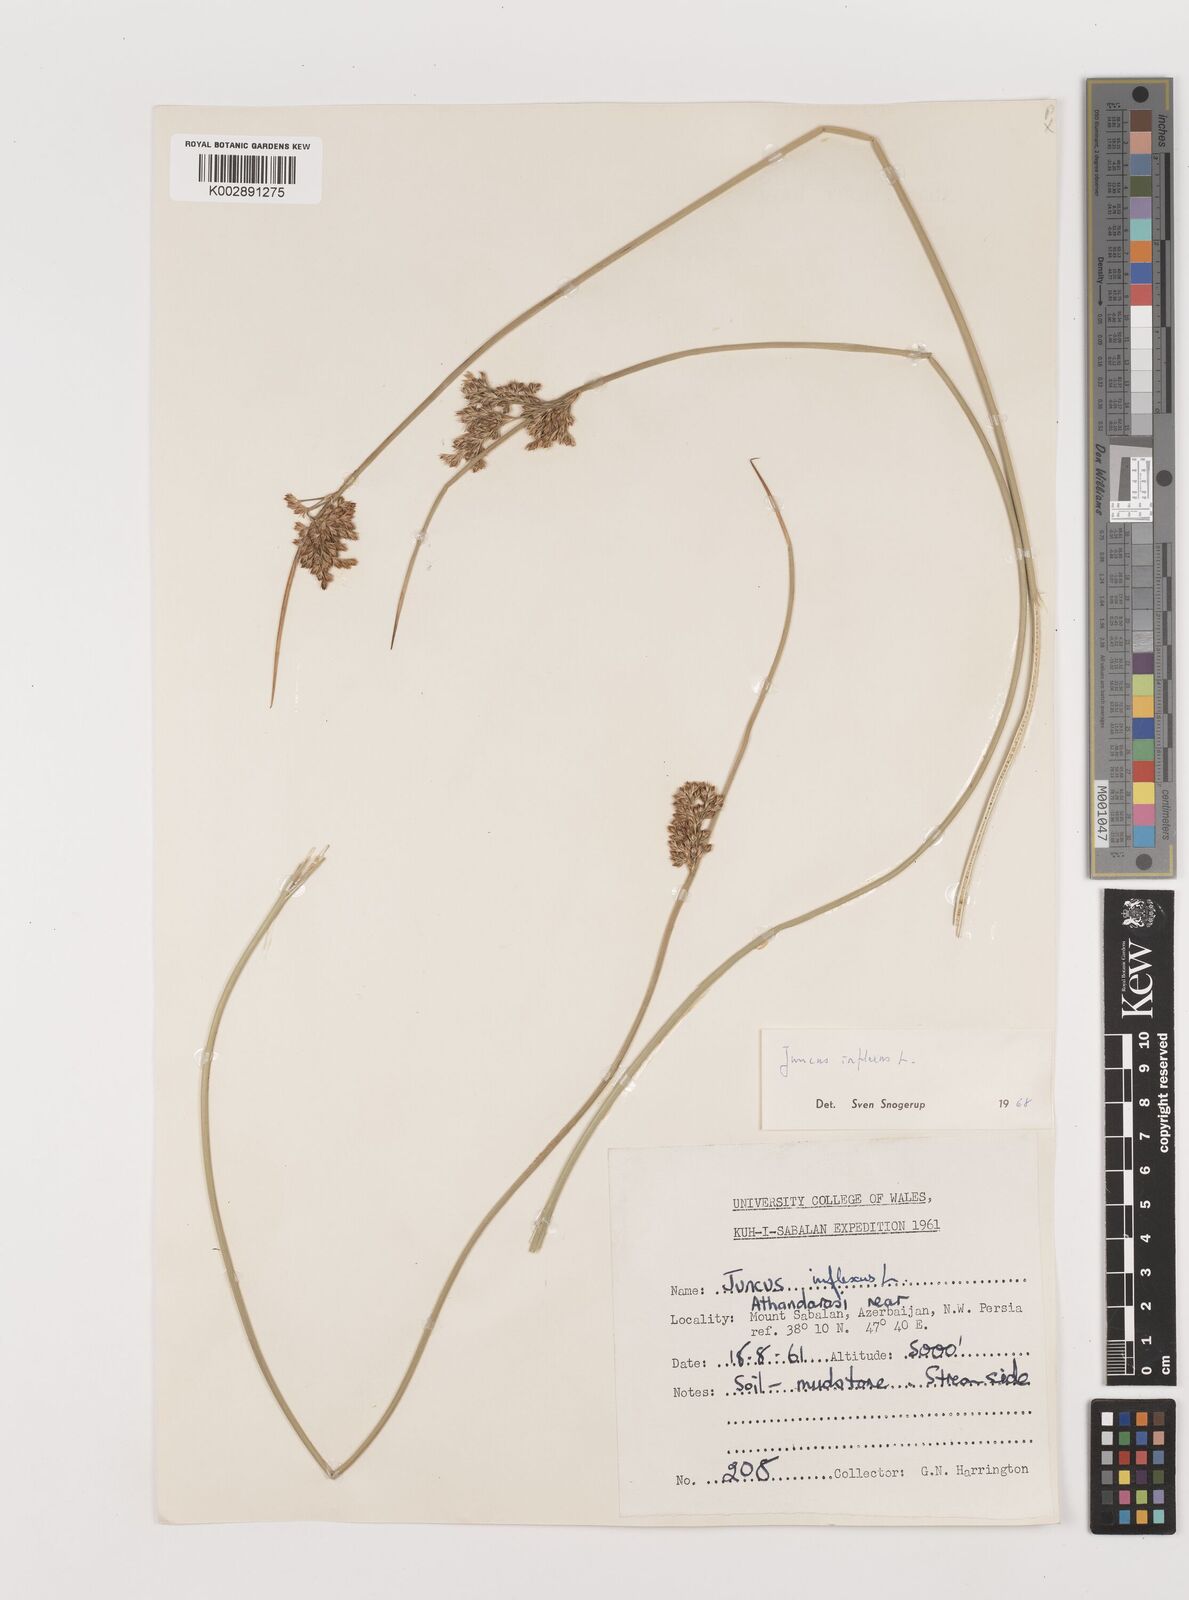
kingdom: Plantae
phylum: Tracheophyta
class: Liliopsida
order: Poales
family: Juncaceae
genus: Juncus
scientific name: Juncus inflexus
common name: Hard rush
